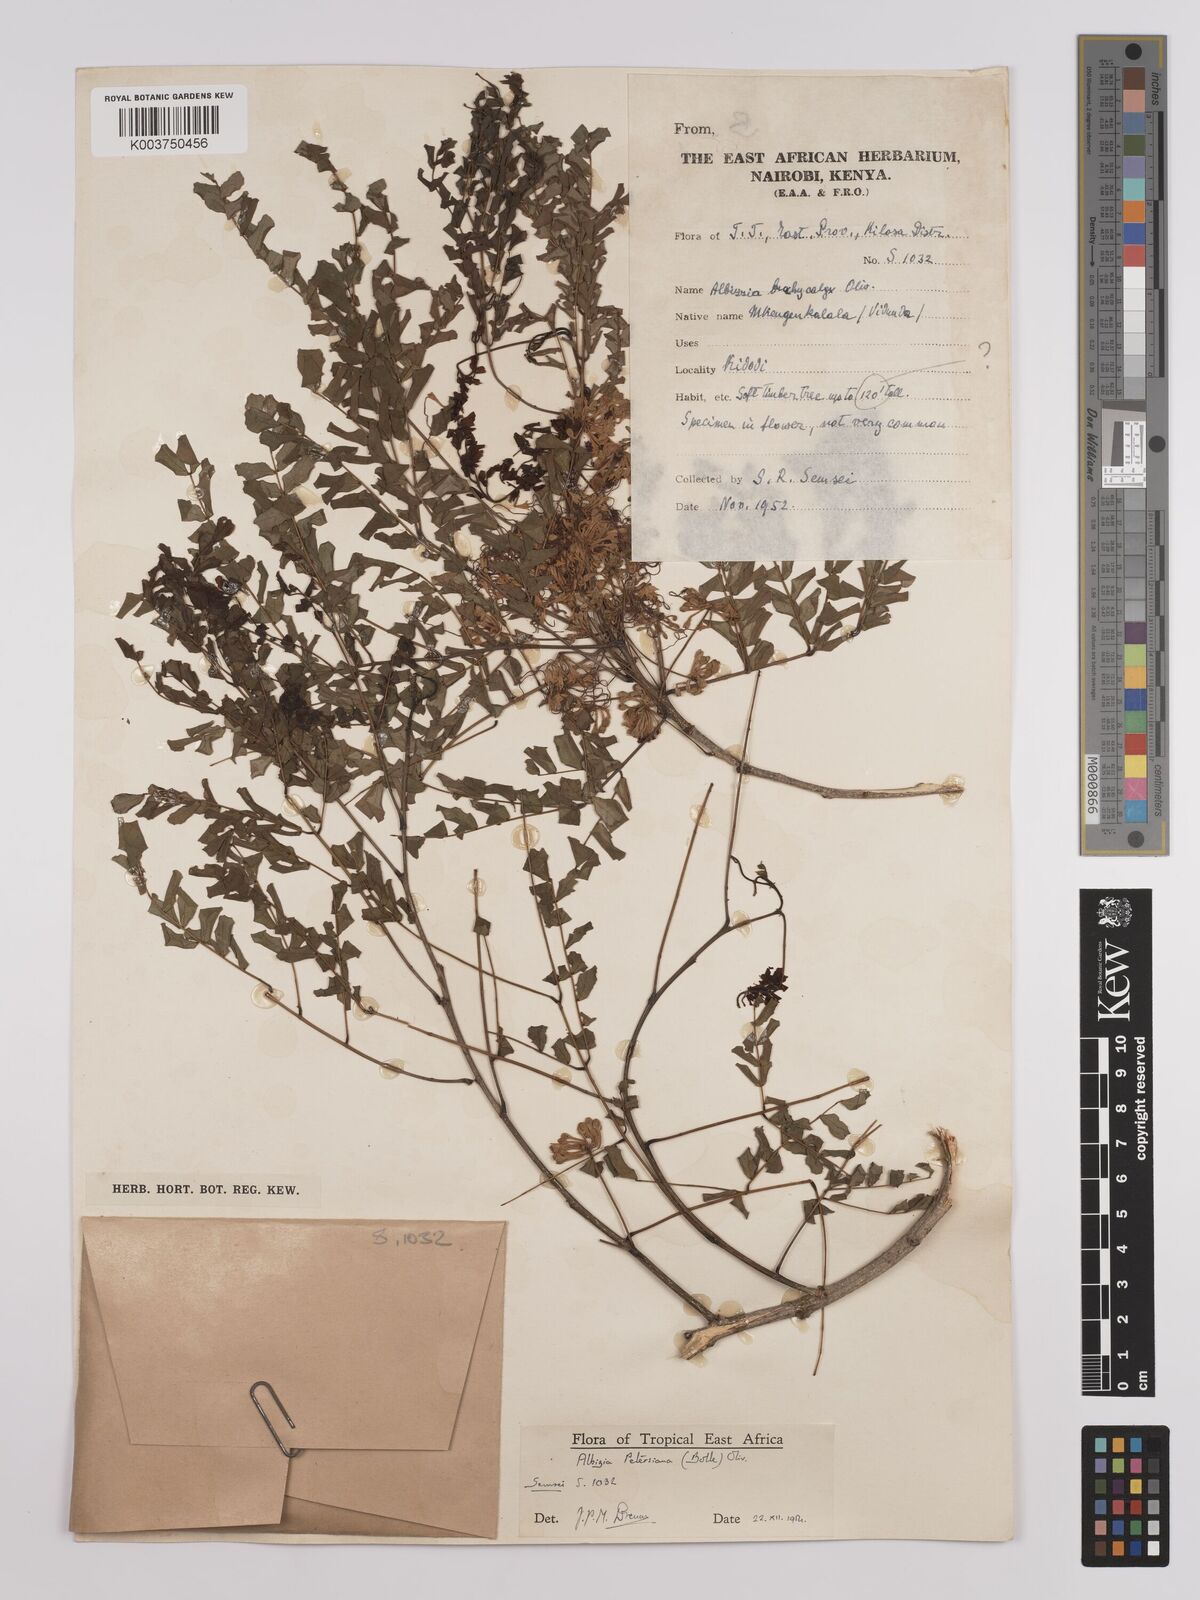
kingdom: Plantae
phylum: Tracheophyta
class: Magnoliopsida
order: Fabales
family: Fabaceae
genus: Albizia
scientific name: Albizia petersiana
